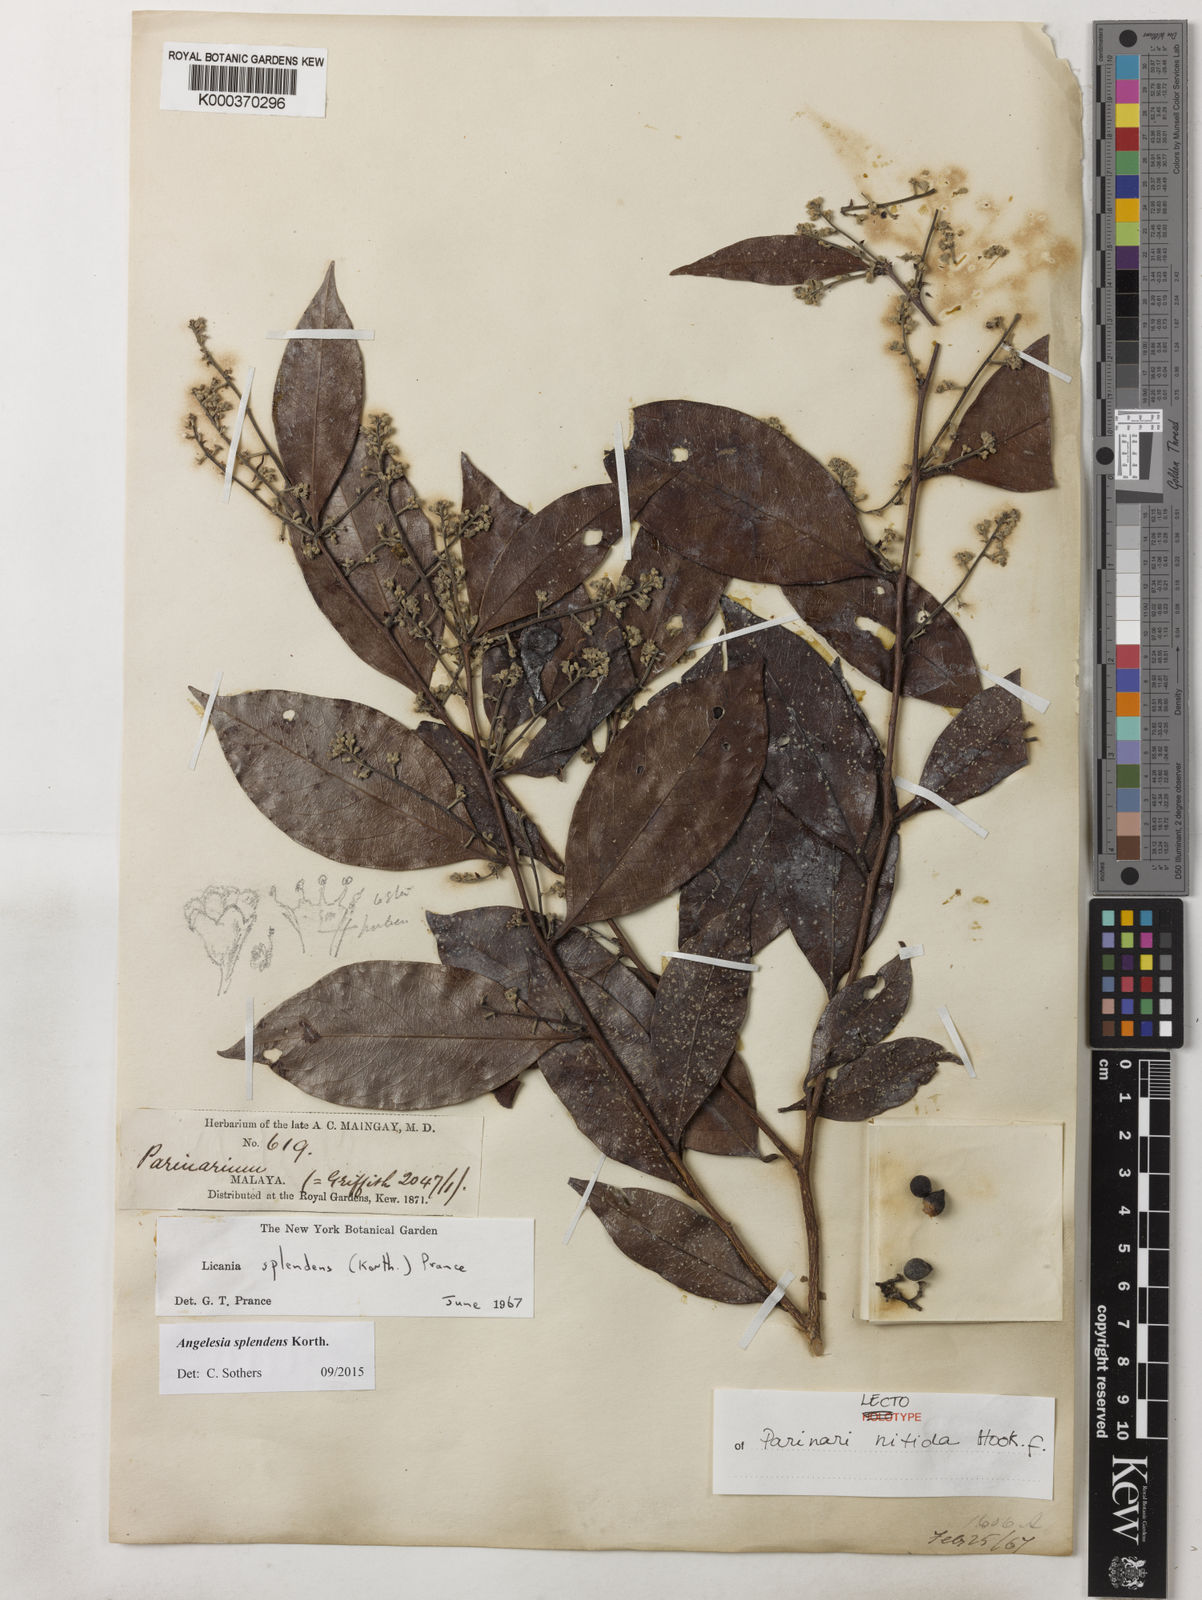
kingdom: Plantae
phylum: Tracheophyta
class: Magnoliopsida
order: Malpighiales
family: Chrysobalanaceae
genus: Angelesia
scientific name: Angelesia splendens
